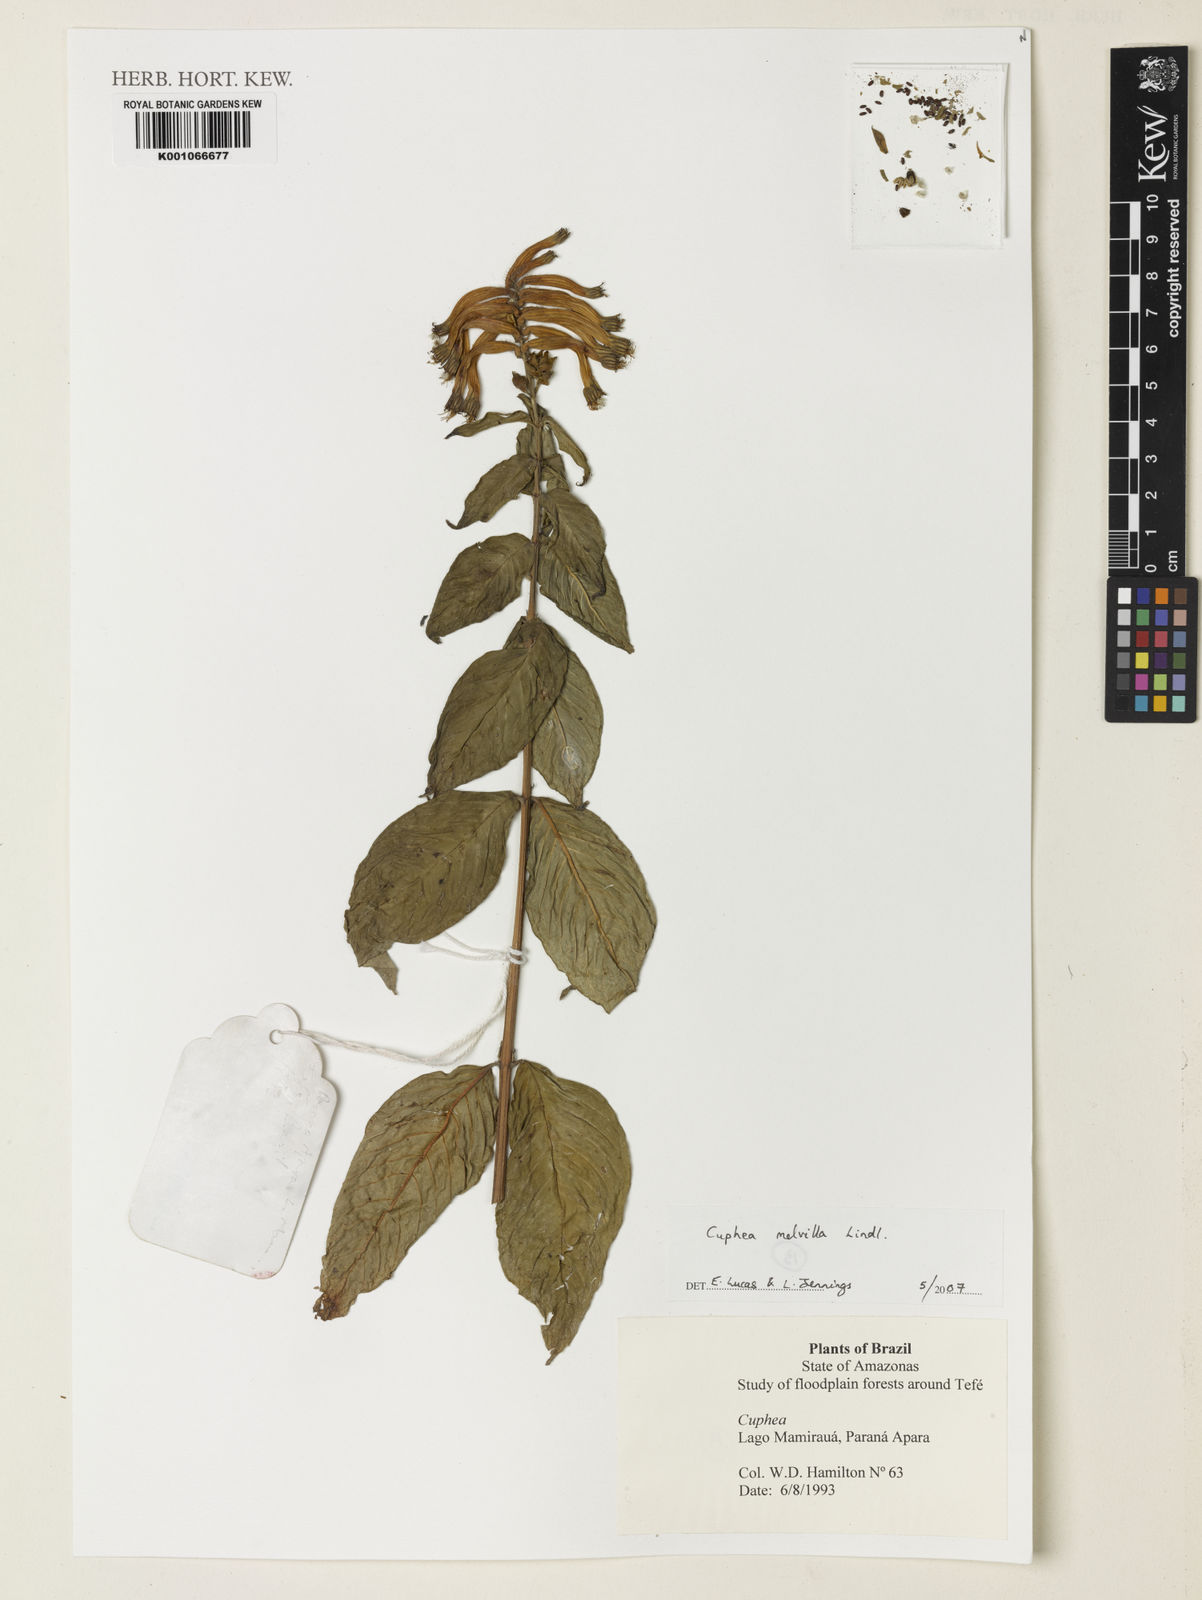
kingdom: Plantae
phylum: Tracheophyta
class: Magnoliopsida
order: Myrtales
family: Lythraceae
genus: Cuphea
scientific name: Cuphea melvilla
